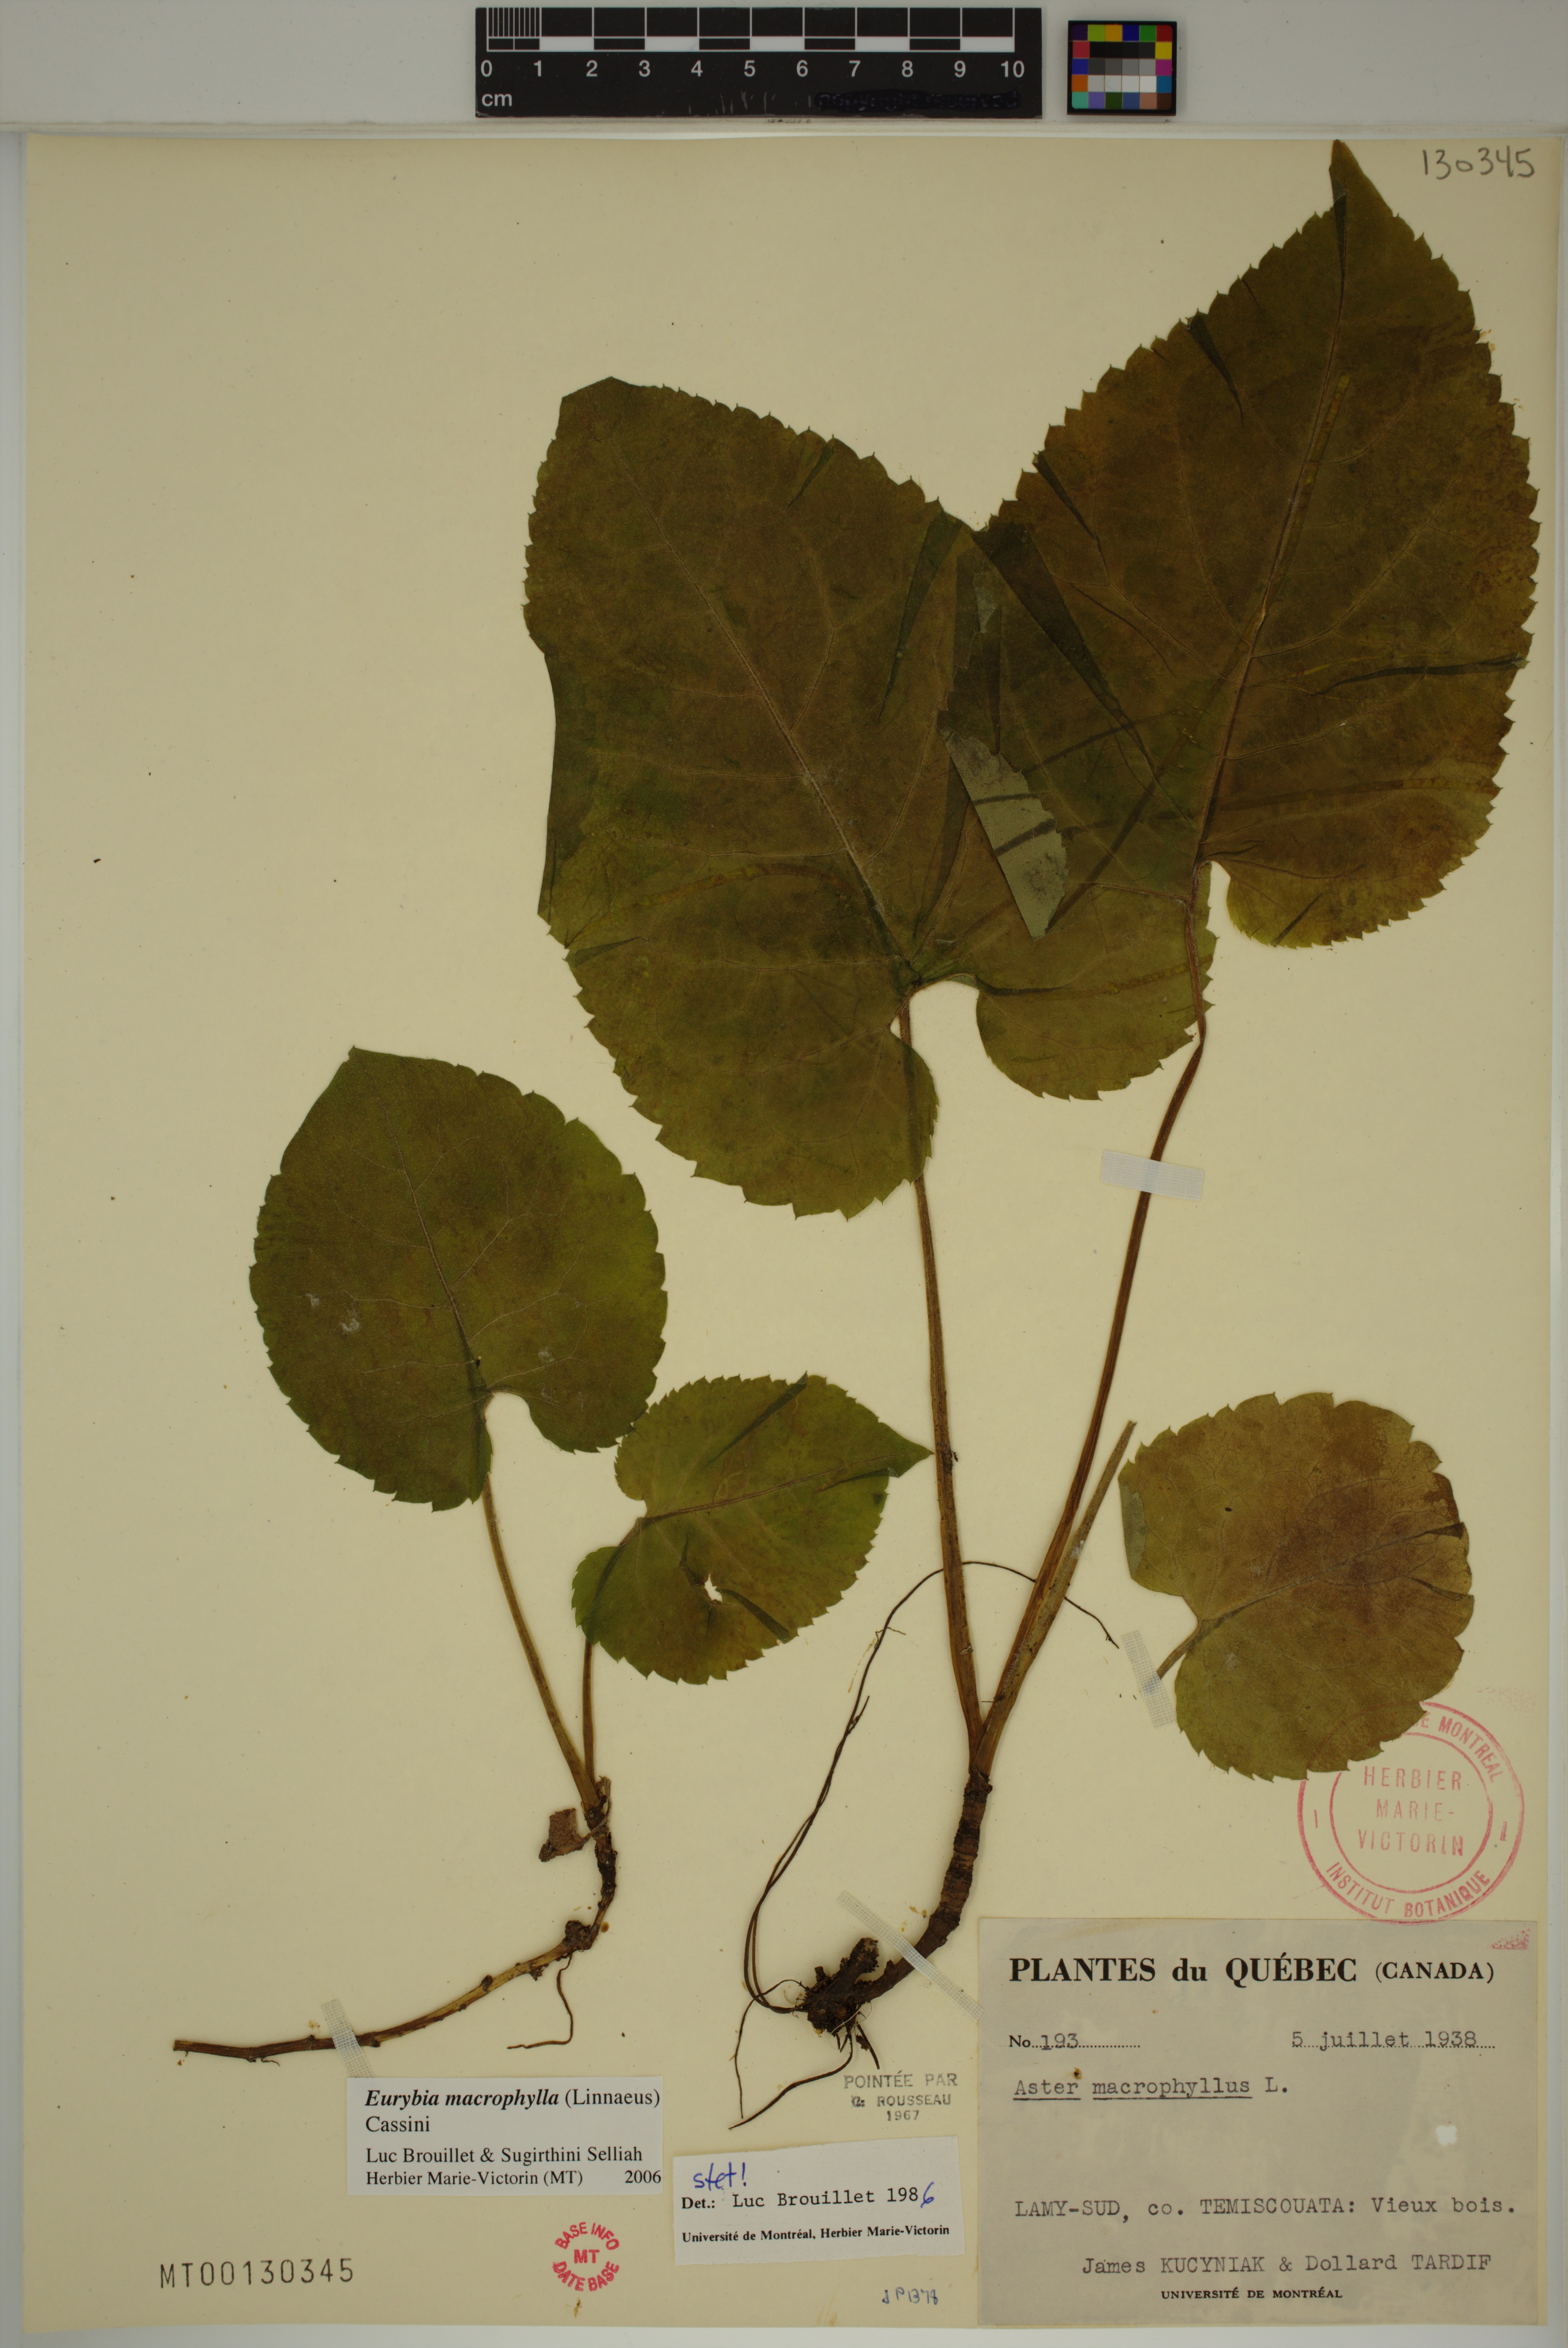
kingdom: Plantae
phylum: Tracheophyta
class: Magnoliopsida
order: Asterales
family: Asteraceae
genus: Eurybia
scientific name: Eurybia macrophylla
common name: Big-leaved aster
